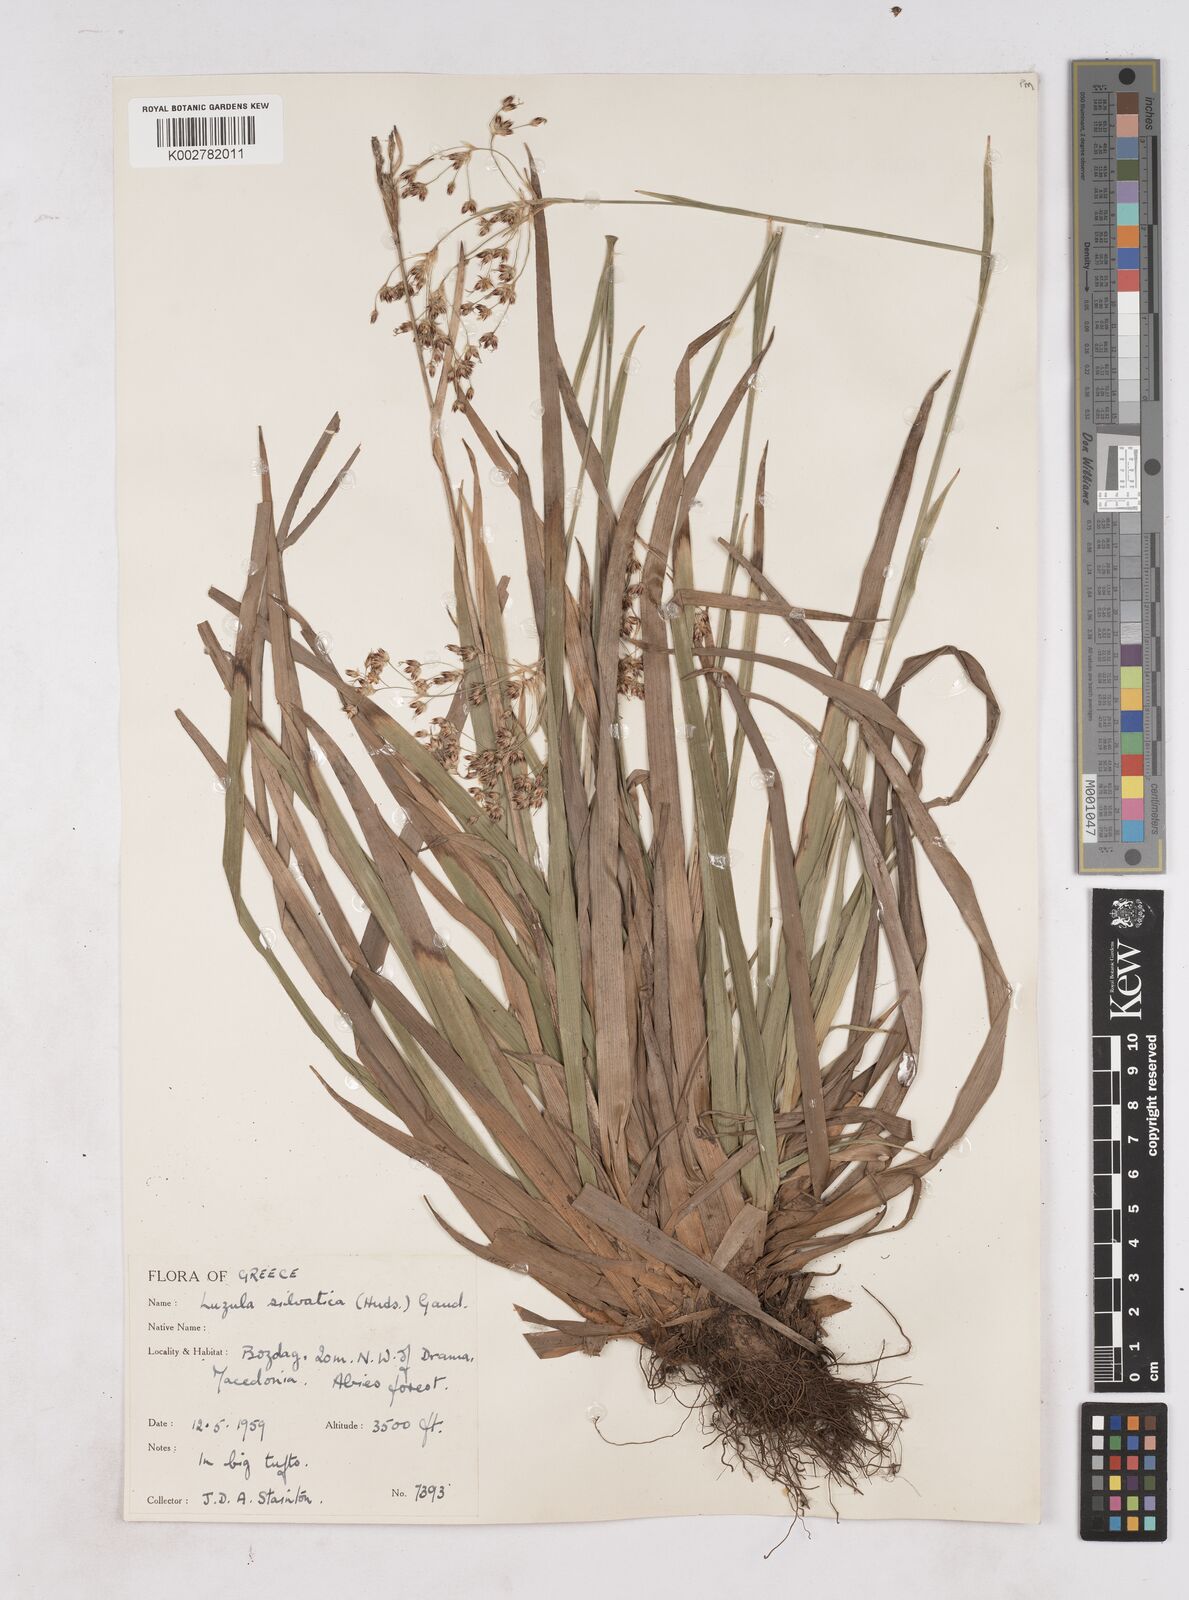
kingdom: Plantae
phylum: Tracheophyta
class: Liliopsida
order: Poales
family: Juncaceae
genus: Luzula
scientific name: Luzula sylvatica
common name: Great wood-rush
